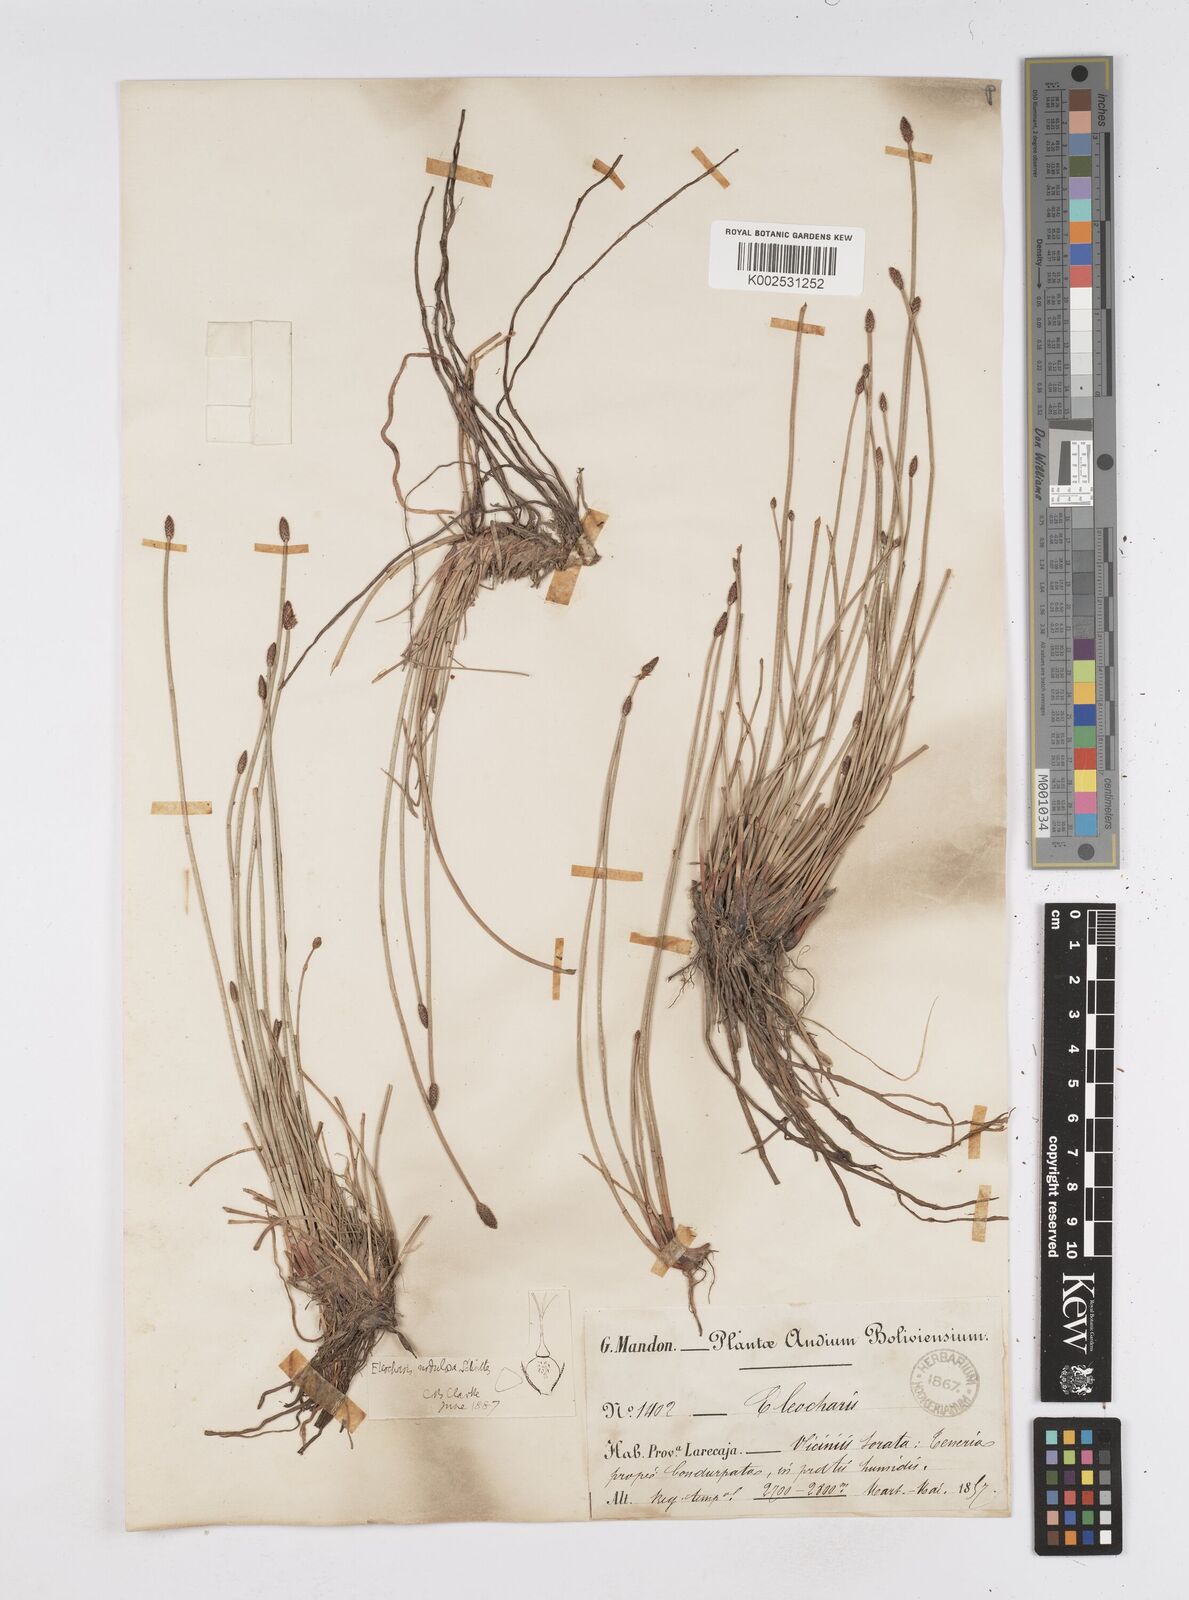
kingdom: Plantae
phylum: Tracheophyta
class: Liliopsida
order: Poales
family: Cyperaceae
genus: Eleocharis
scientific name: Eleocharis montana
